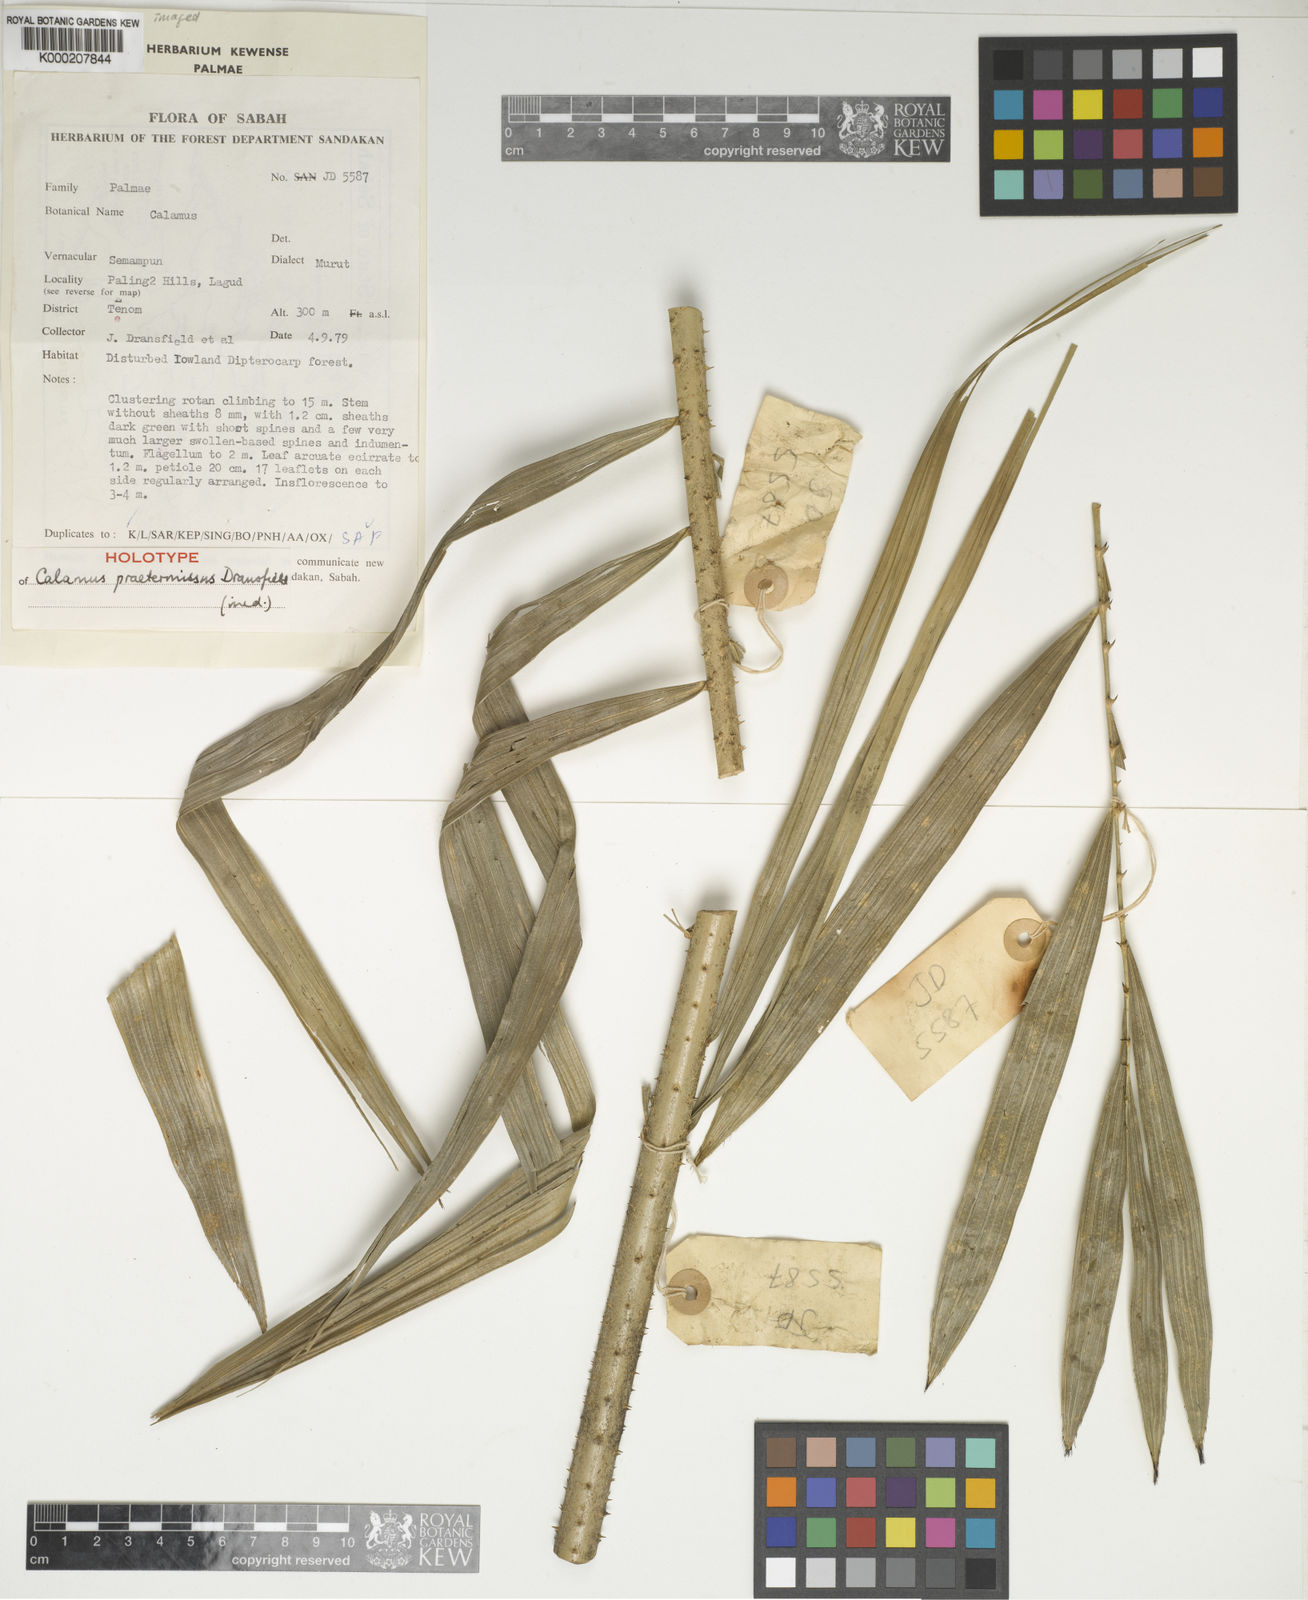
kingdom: Plantae
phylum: Tracheophyta
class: Liliopsida
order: Arecales
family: Arecaceae
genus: Calamus
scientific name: Calamus praetermissus
